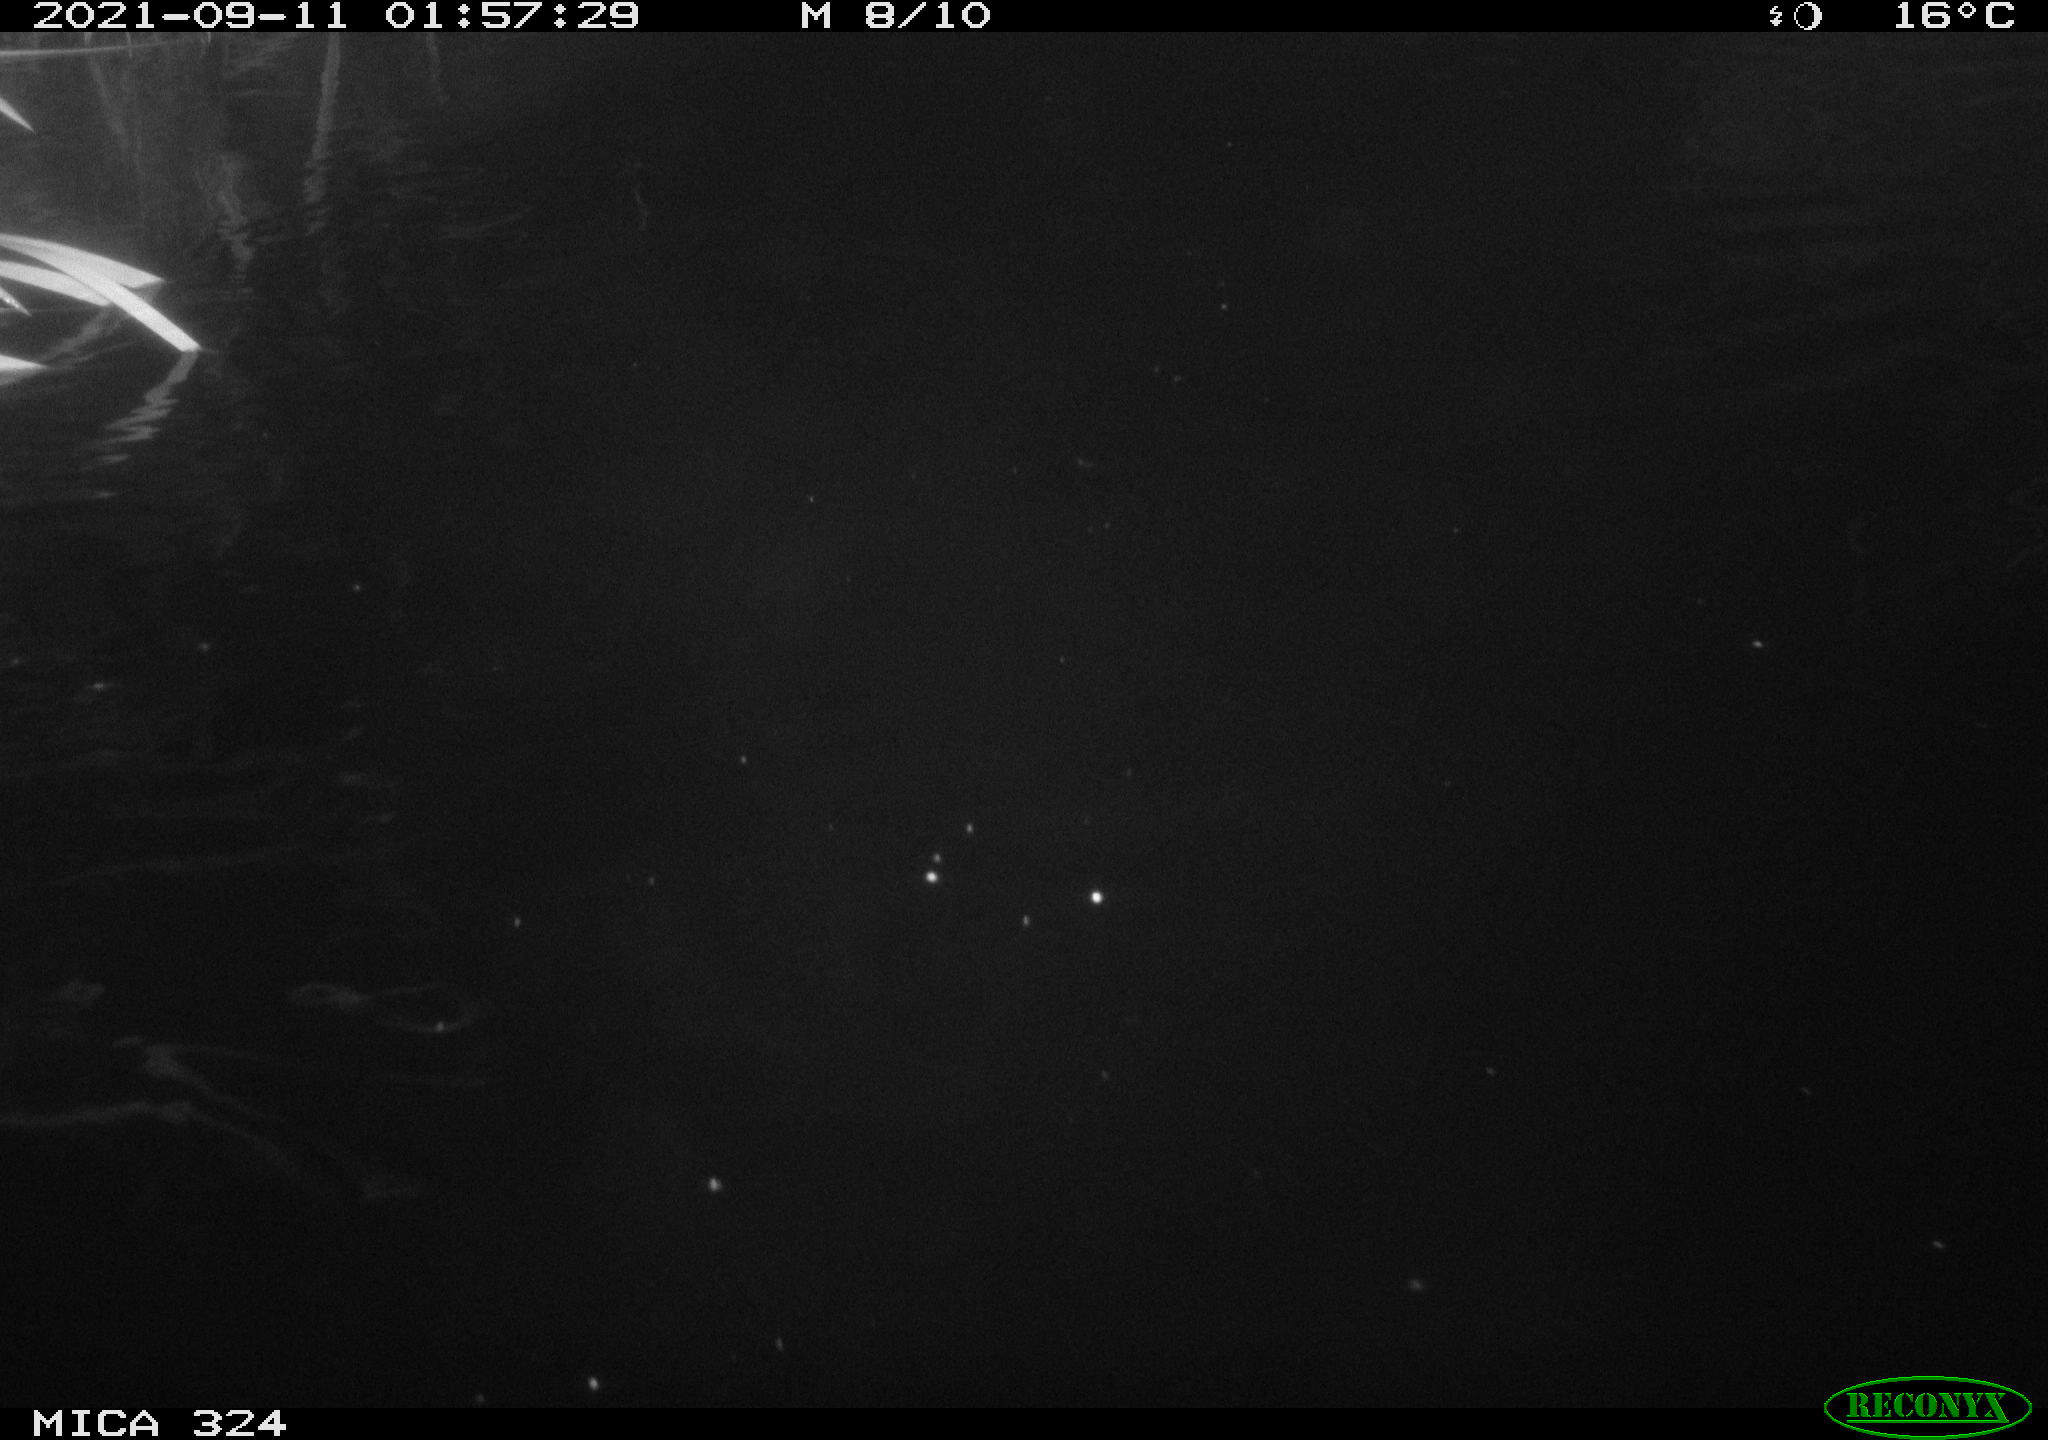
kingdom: Animalia
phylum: Chordata
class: Mammalia
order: Rodentia
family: Cricetidae
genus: Ondatra
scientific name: Ondatra zibethicus
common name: Muskrat
